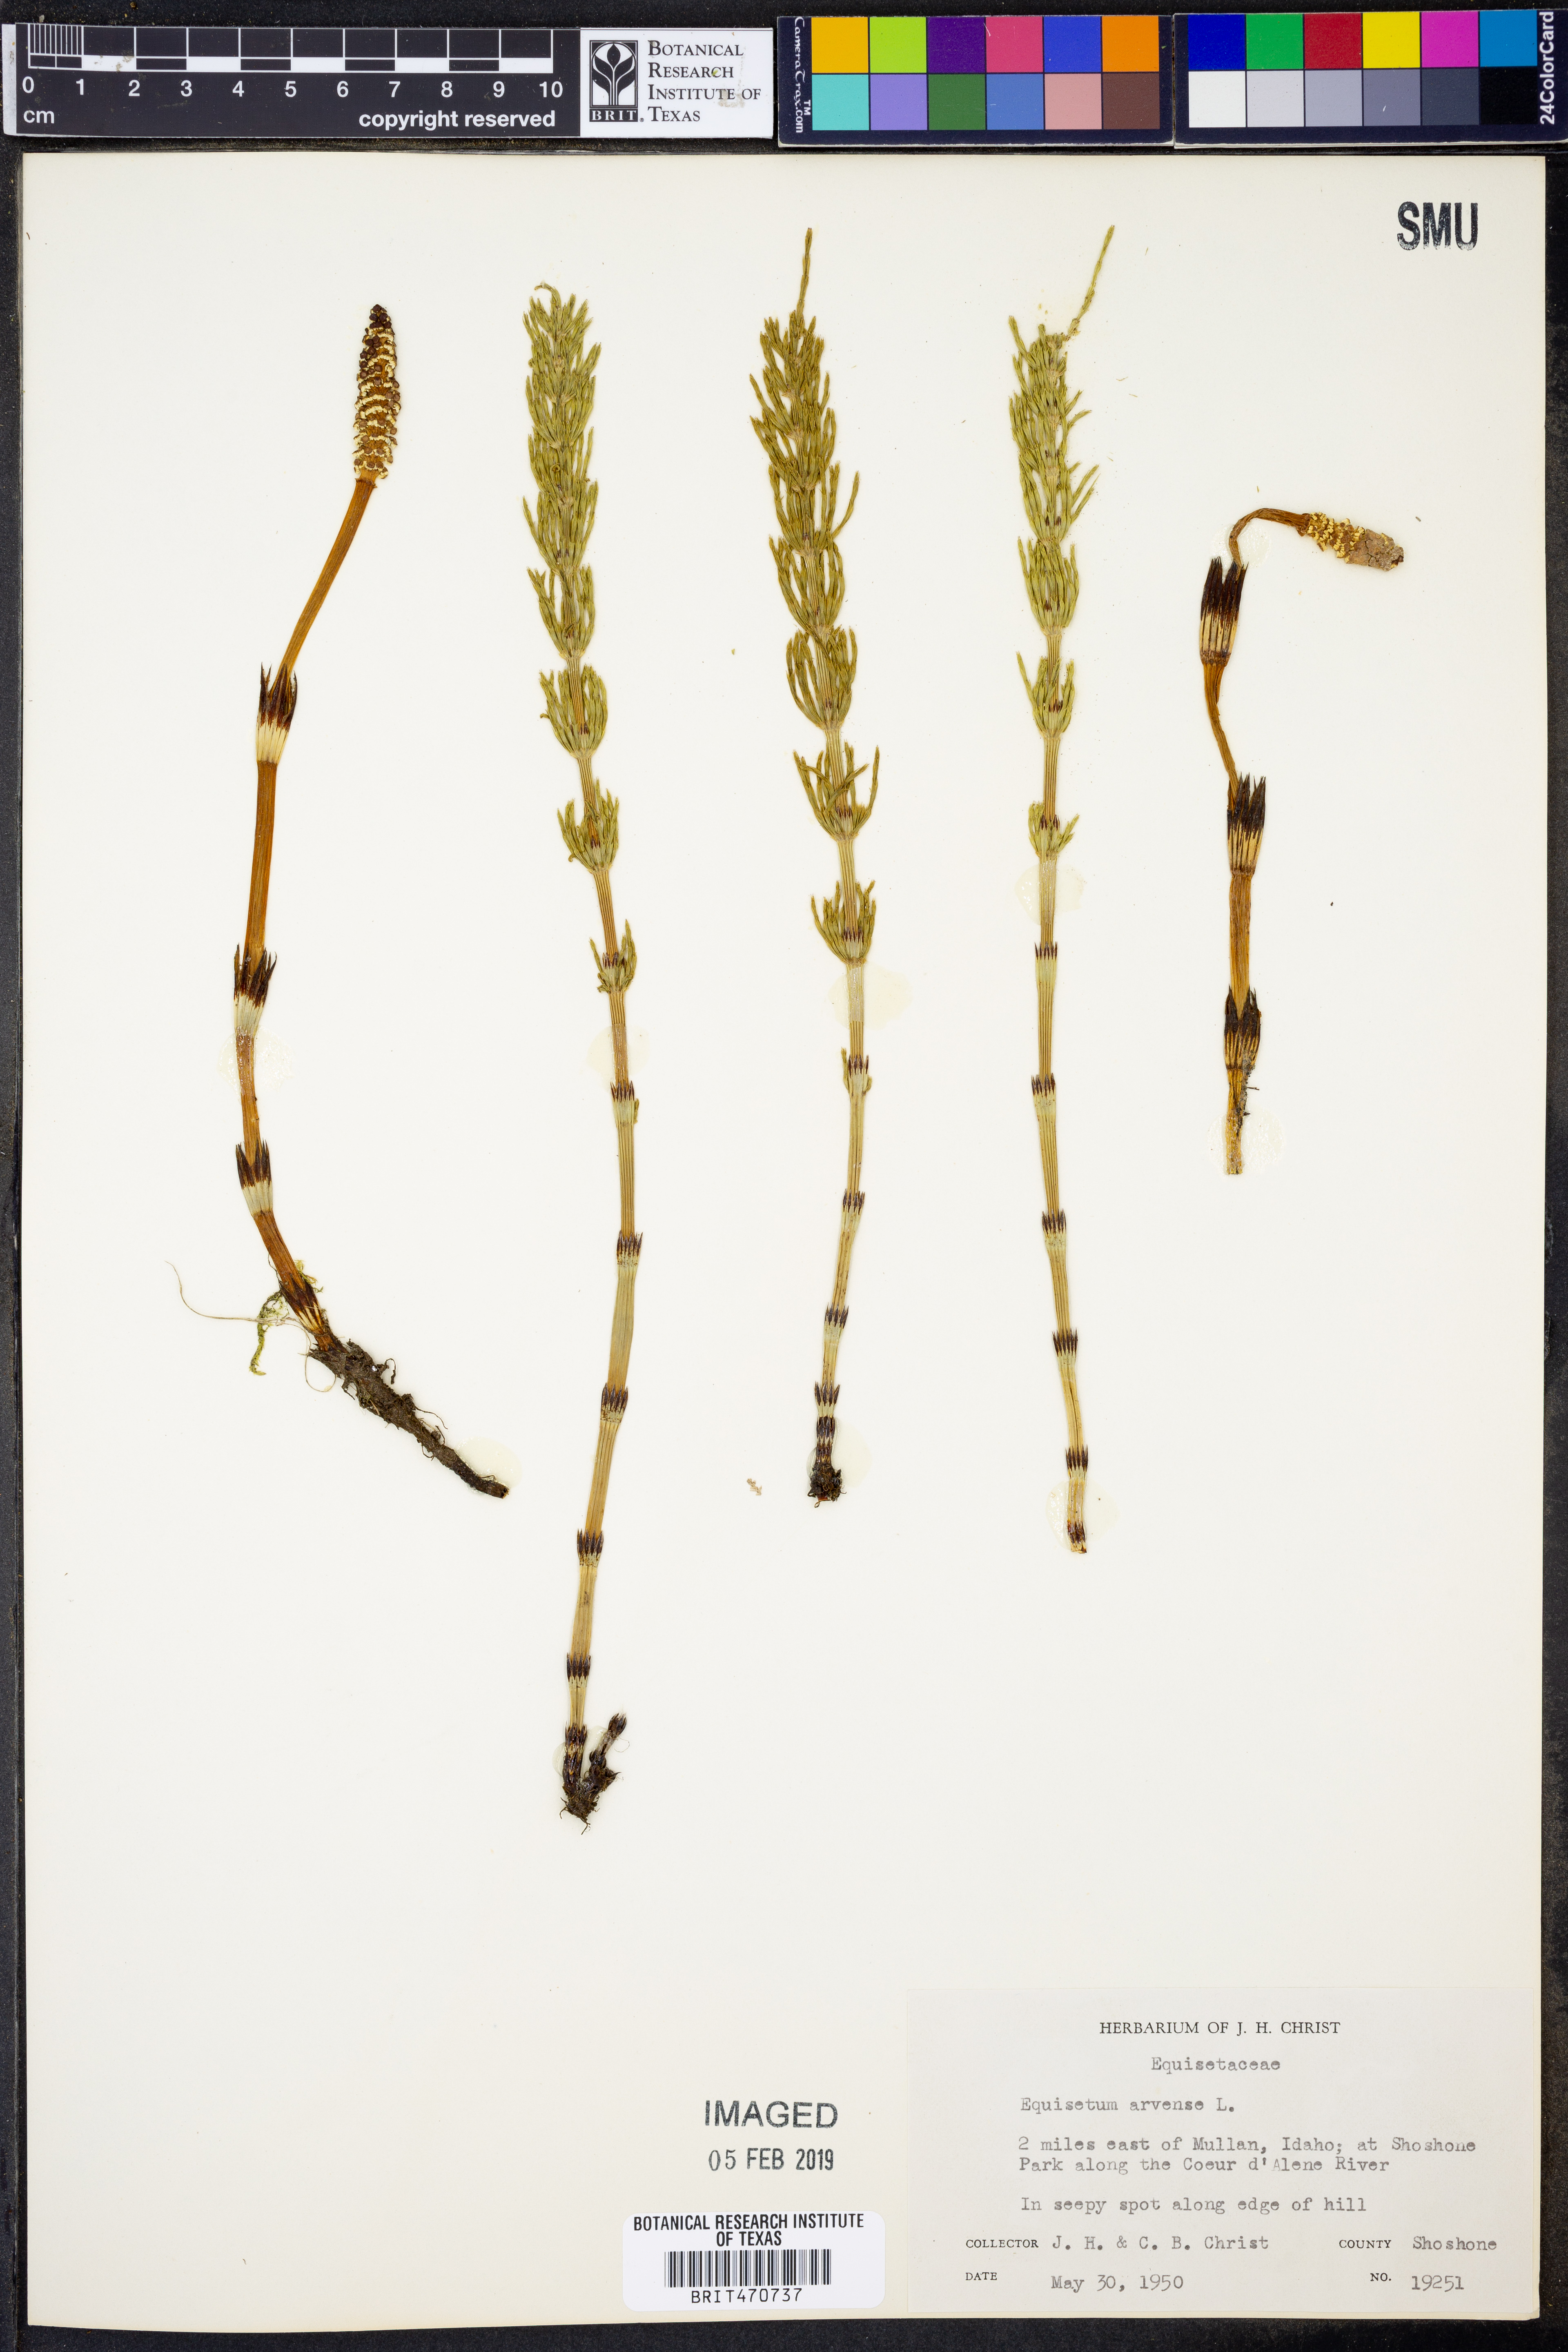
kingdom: Plantae
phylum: Tracheophyta
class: Polypodiopsida
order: Equisetales
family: Equisetaceae
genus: Equisetum
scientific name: Equisetum arvense
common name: Field horsetail
